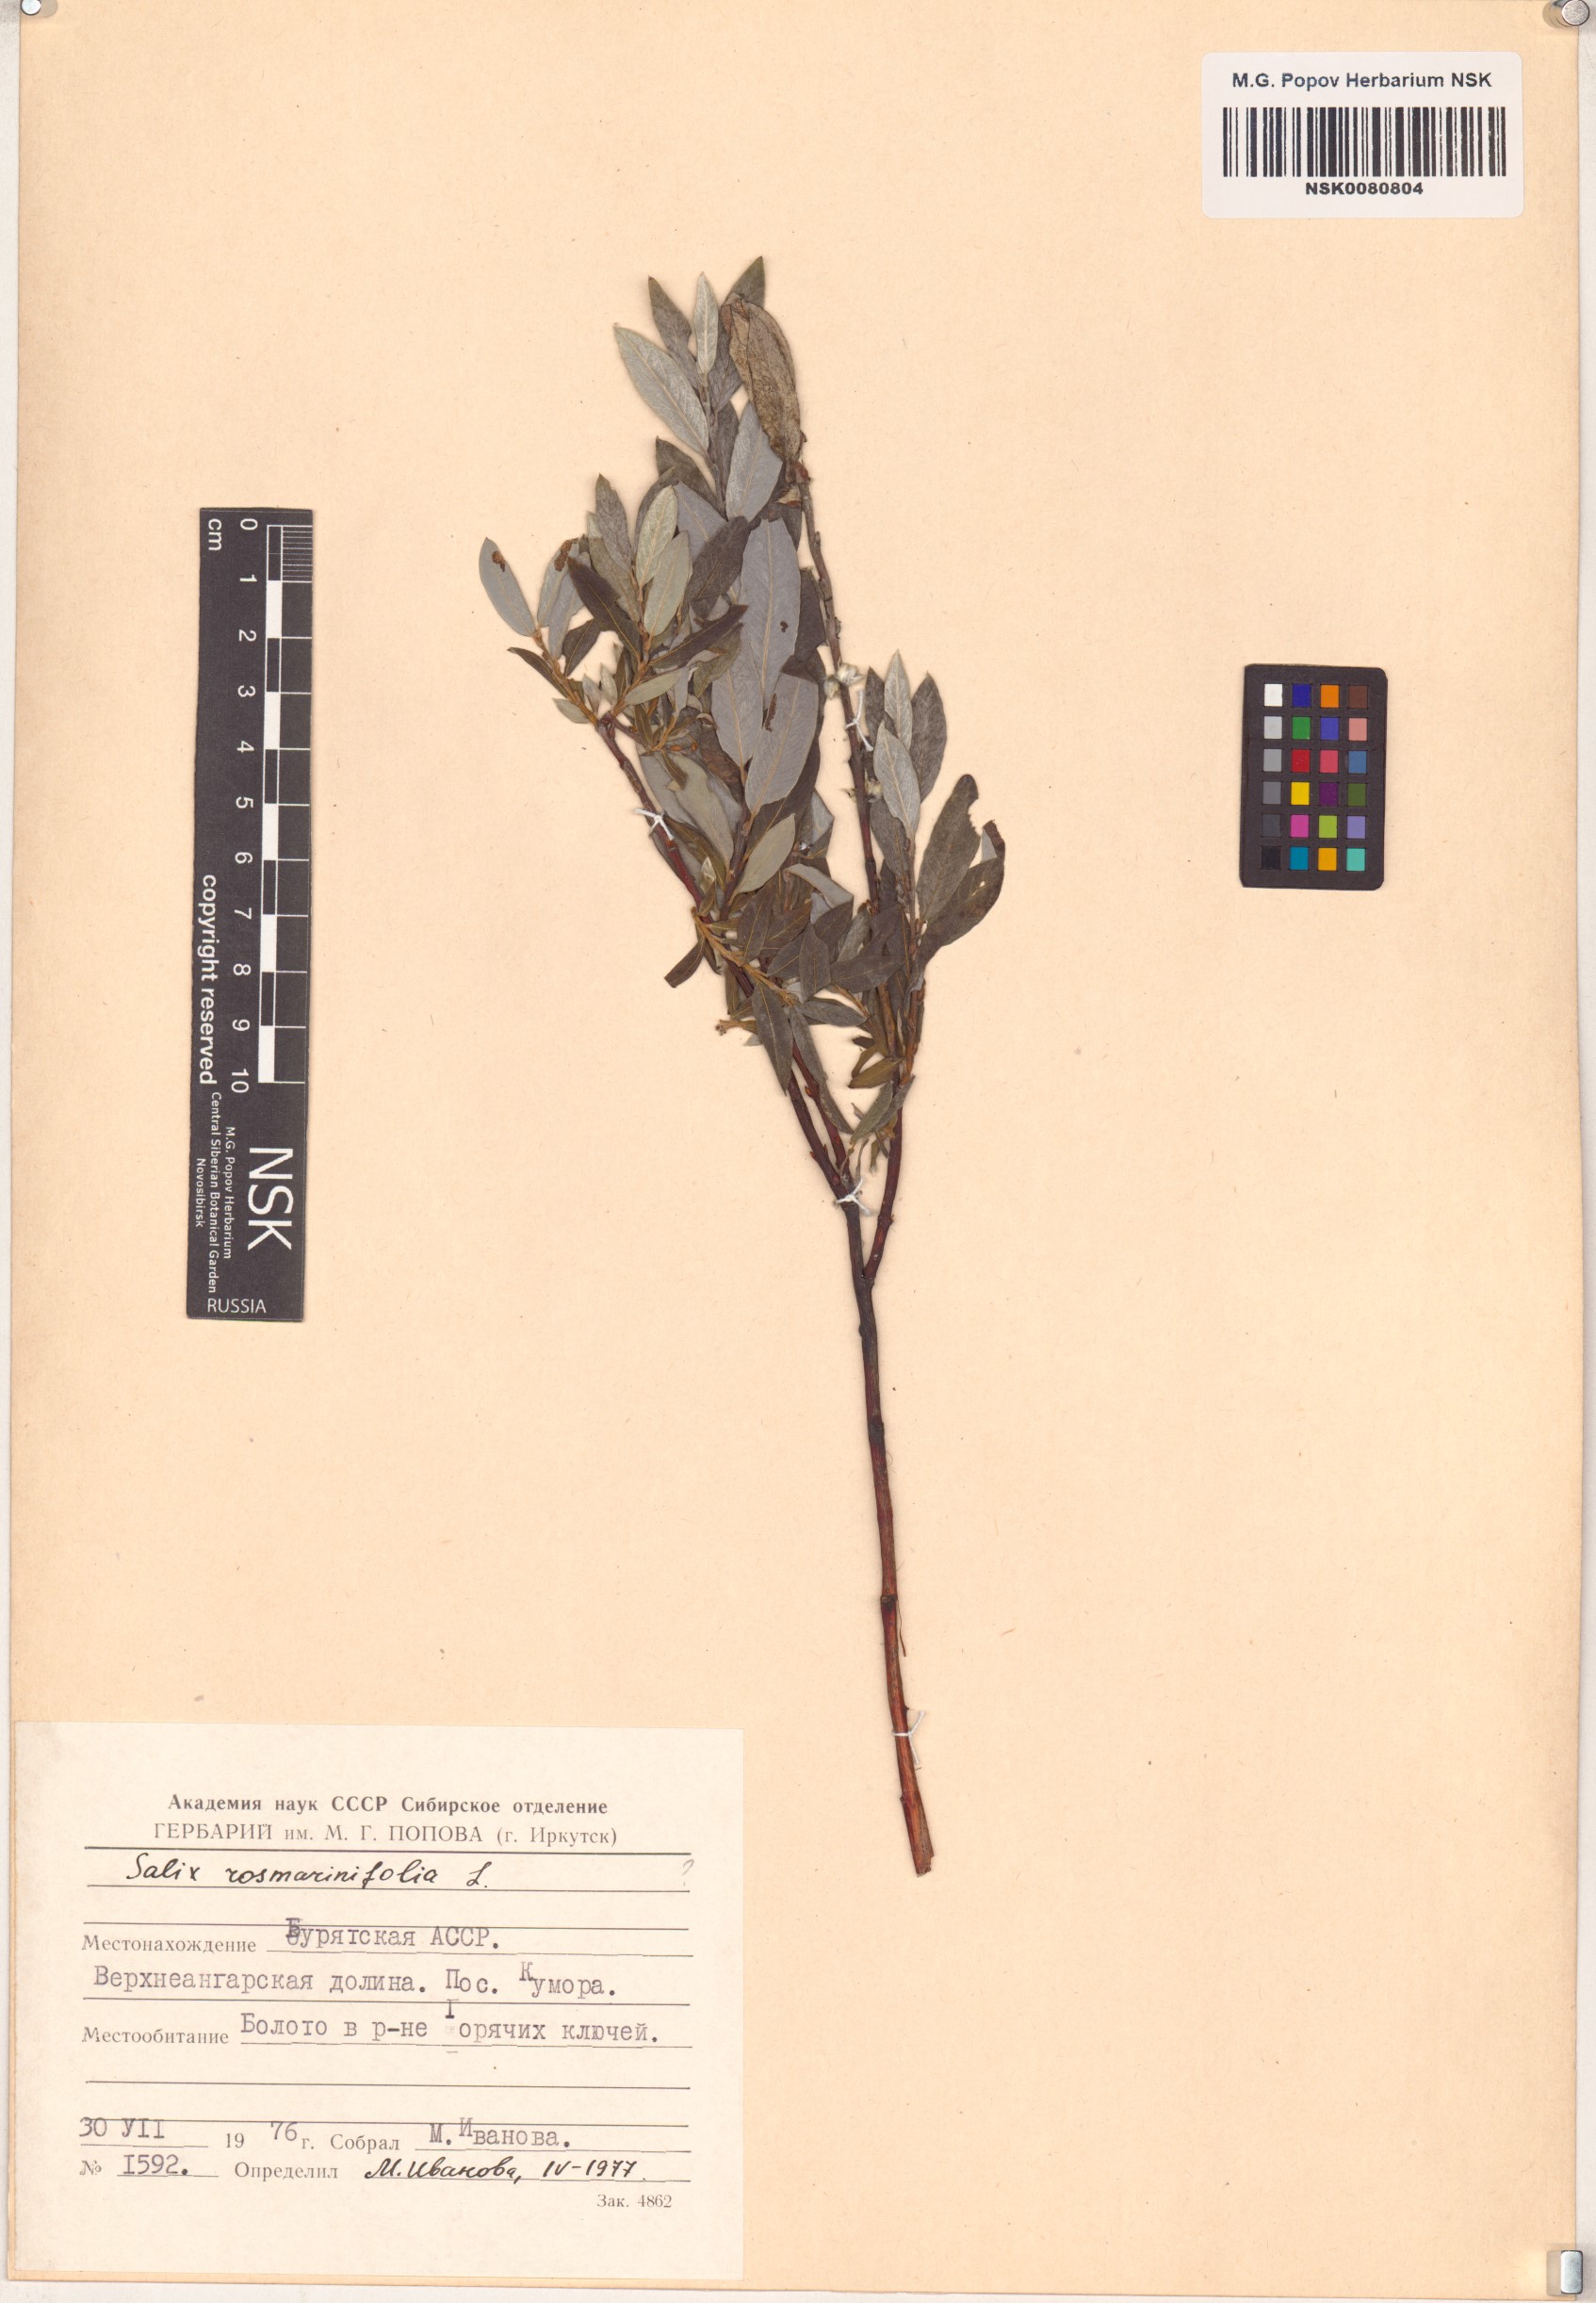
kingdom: Plantae
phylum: Tracheophyta
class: Magnoliopsida
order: Malpighiales
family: Salicaceae
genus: Salix
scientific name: Salix rosmarinifolia
